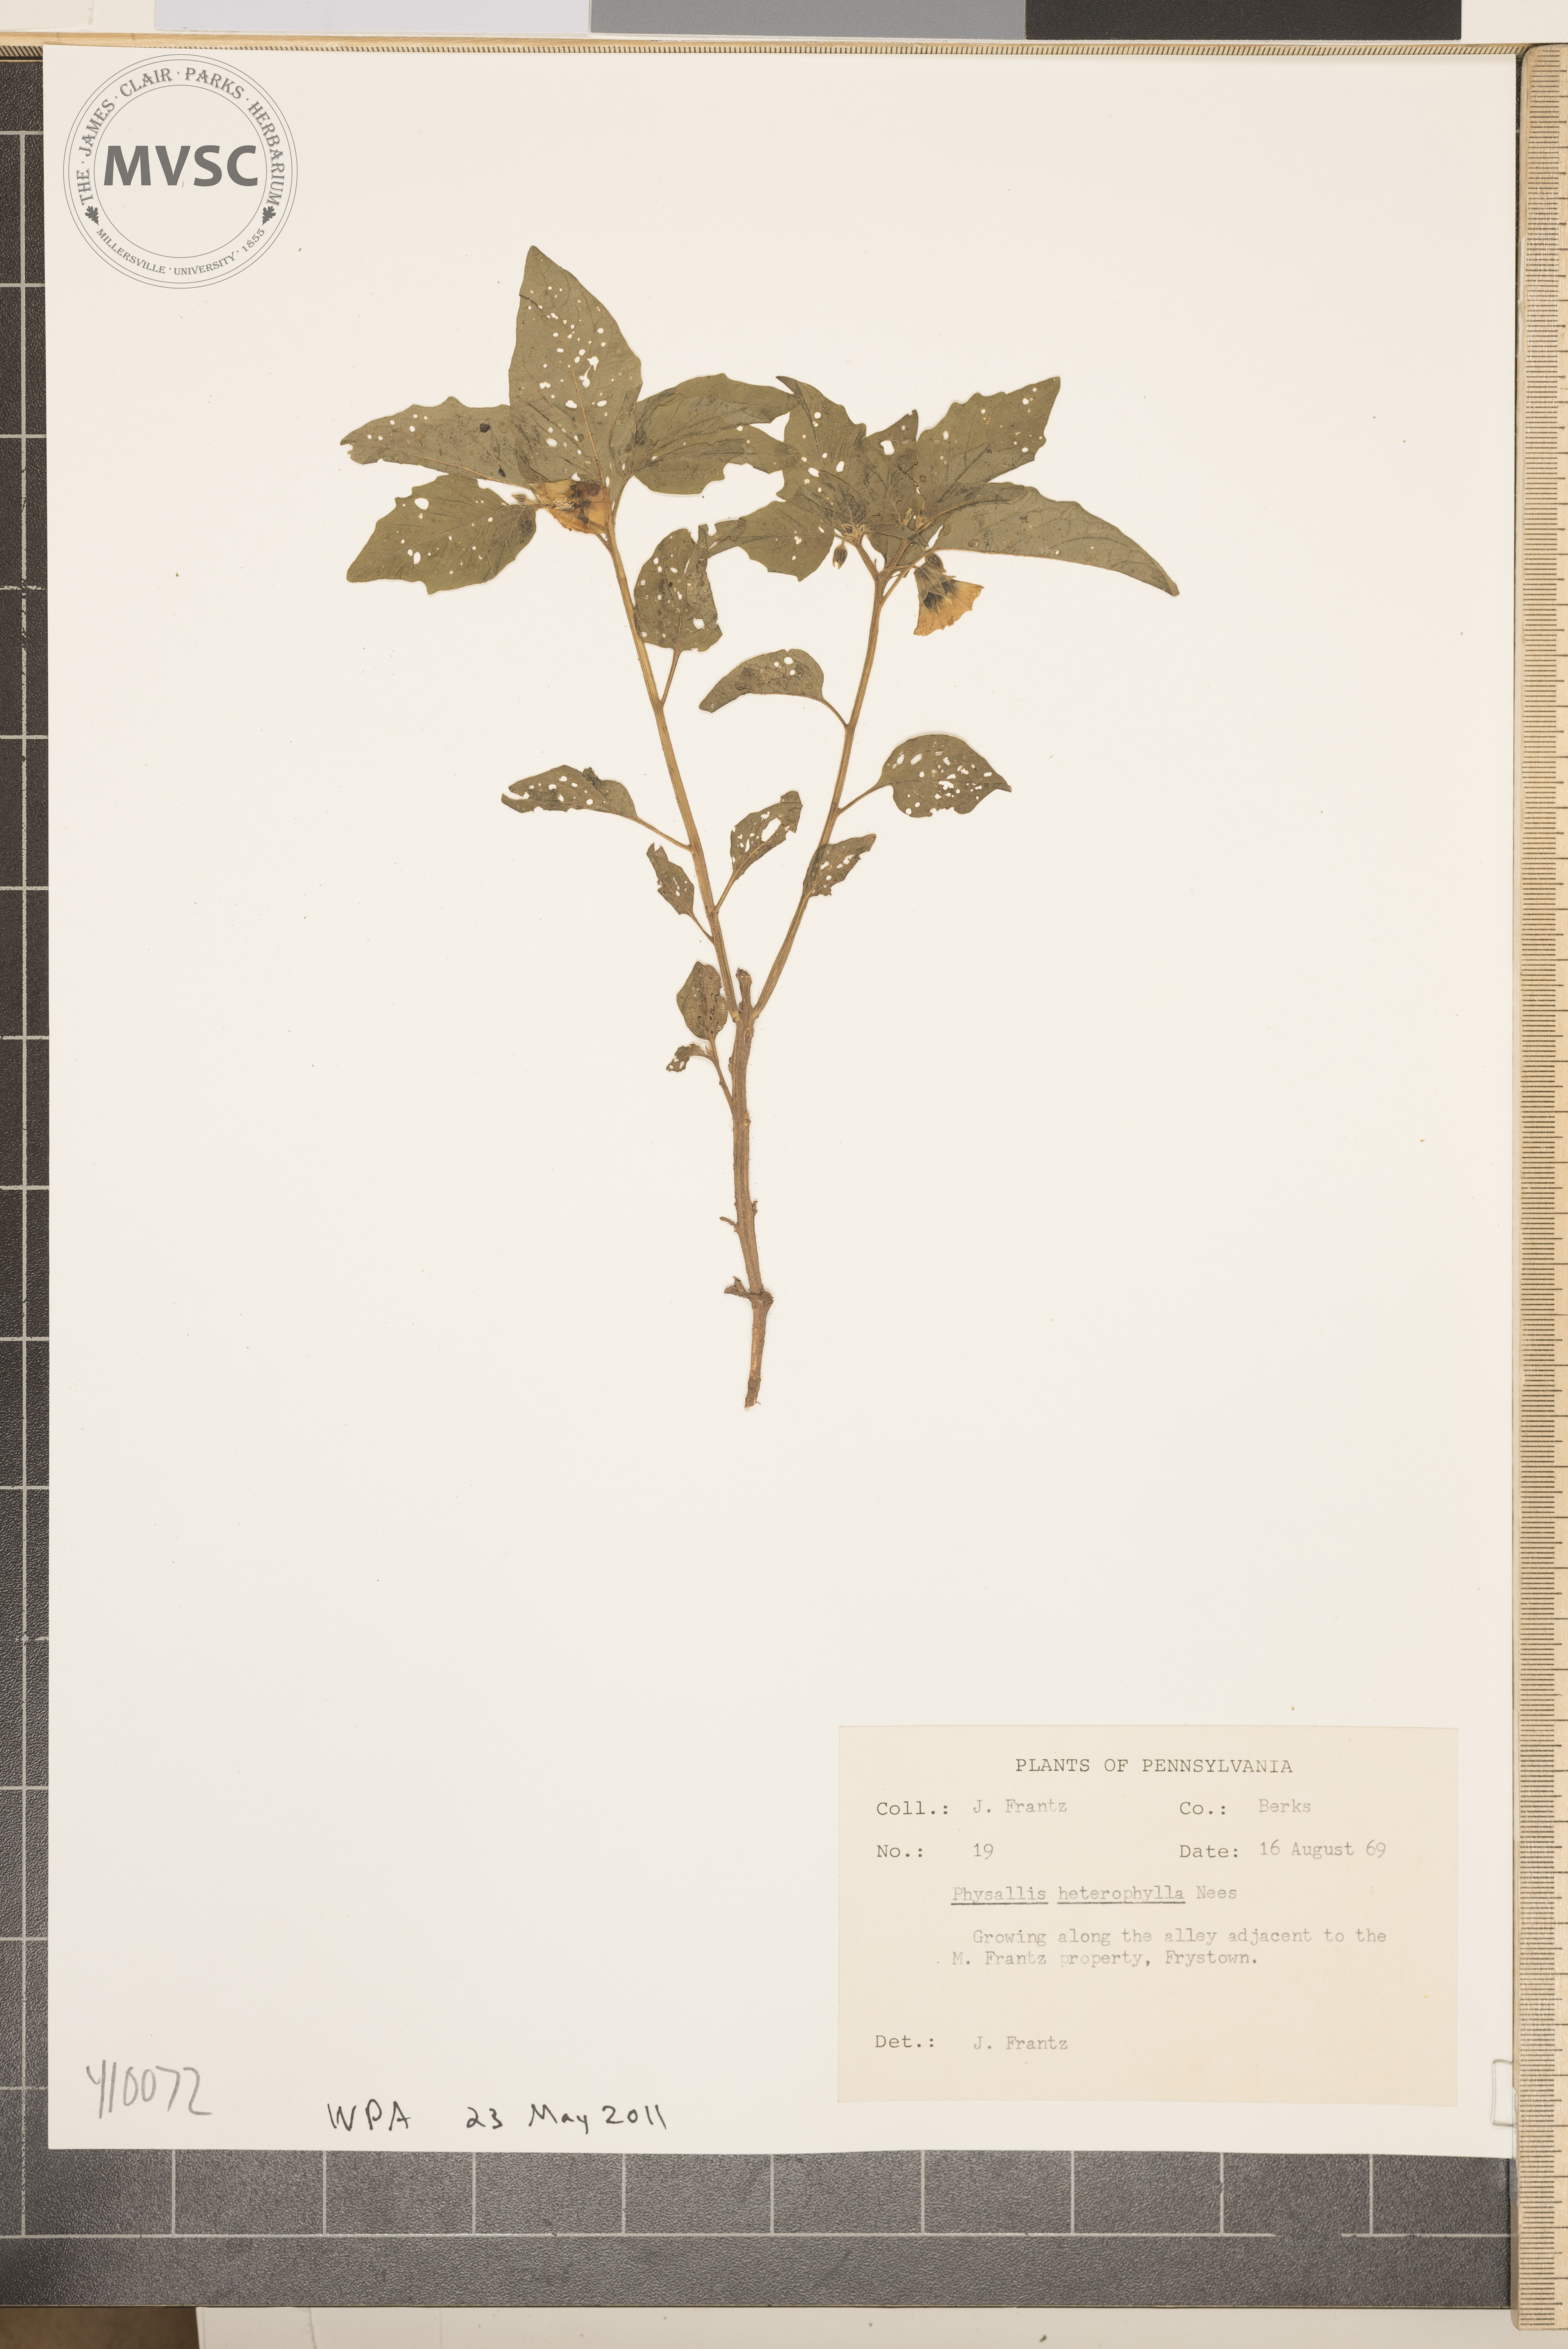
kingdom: Plantae
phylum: Tracheophyta
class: Magnoliopsida
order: Solanales
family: Solanaceae
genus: Physalis
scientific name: Physalis heterophylla
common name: clammy ground-cherry
